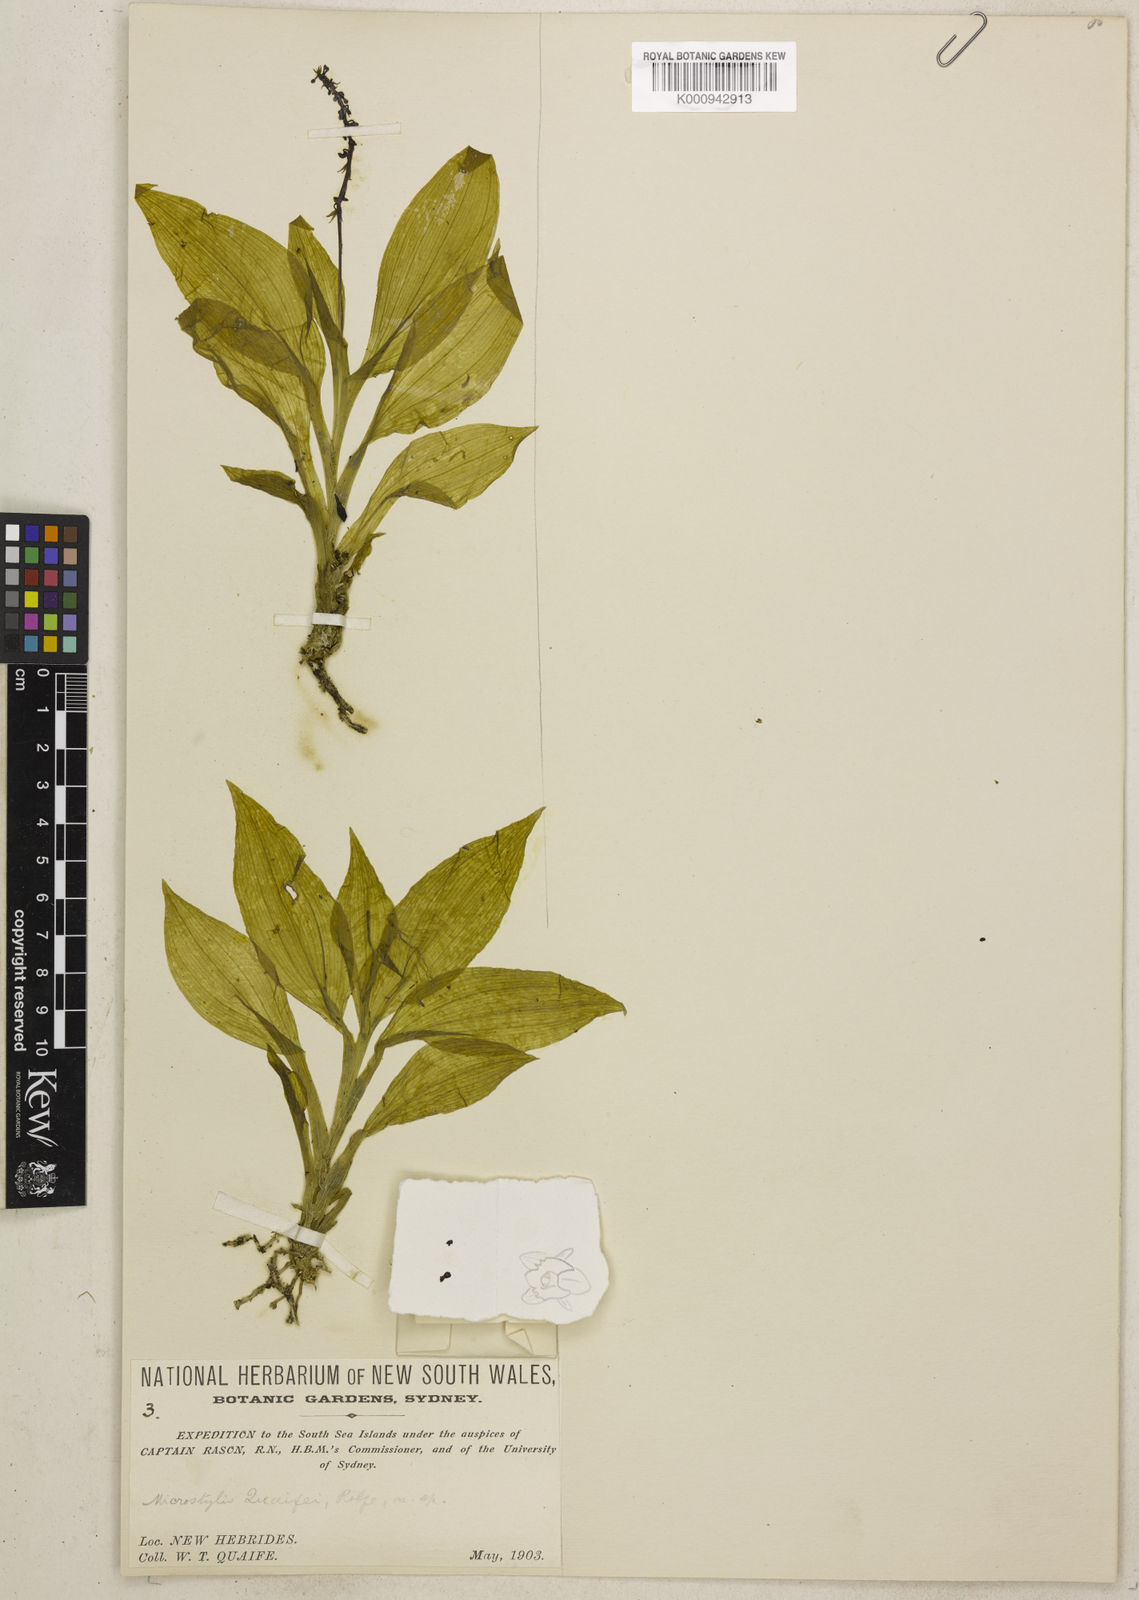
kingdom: Plantae
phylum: Tracheophyta
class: Liliopsida
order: Asparagales
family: Orchidaceae
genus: Crepidium
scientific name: Crepidium xanthochilum
